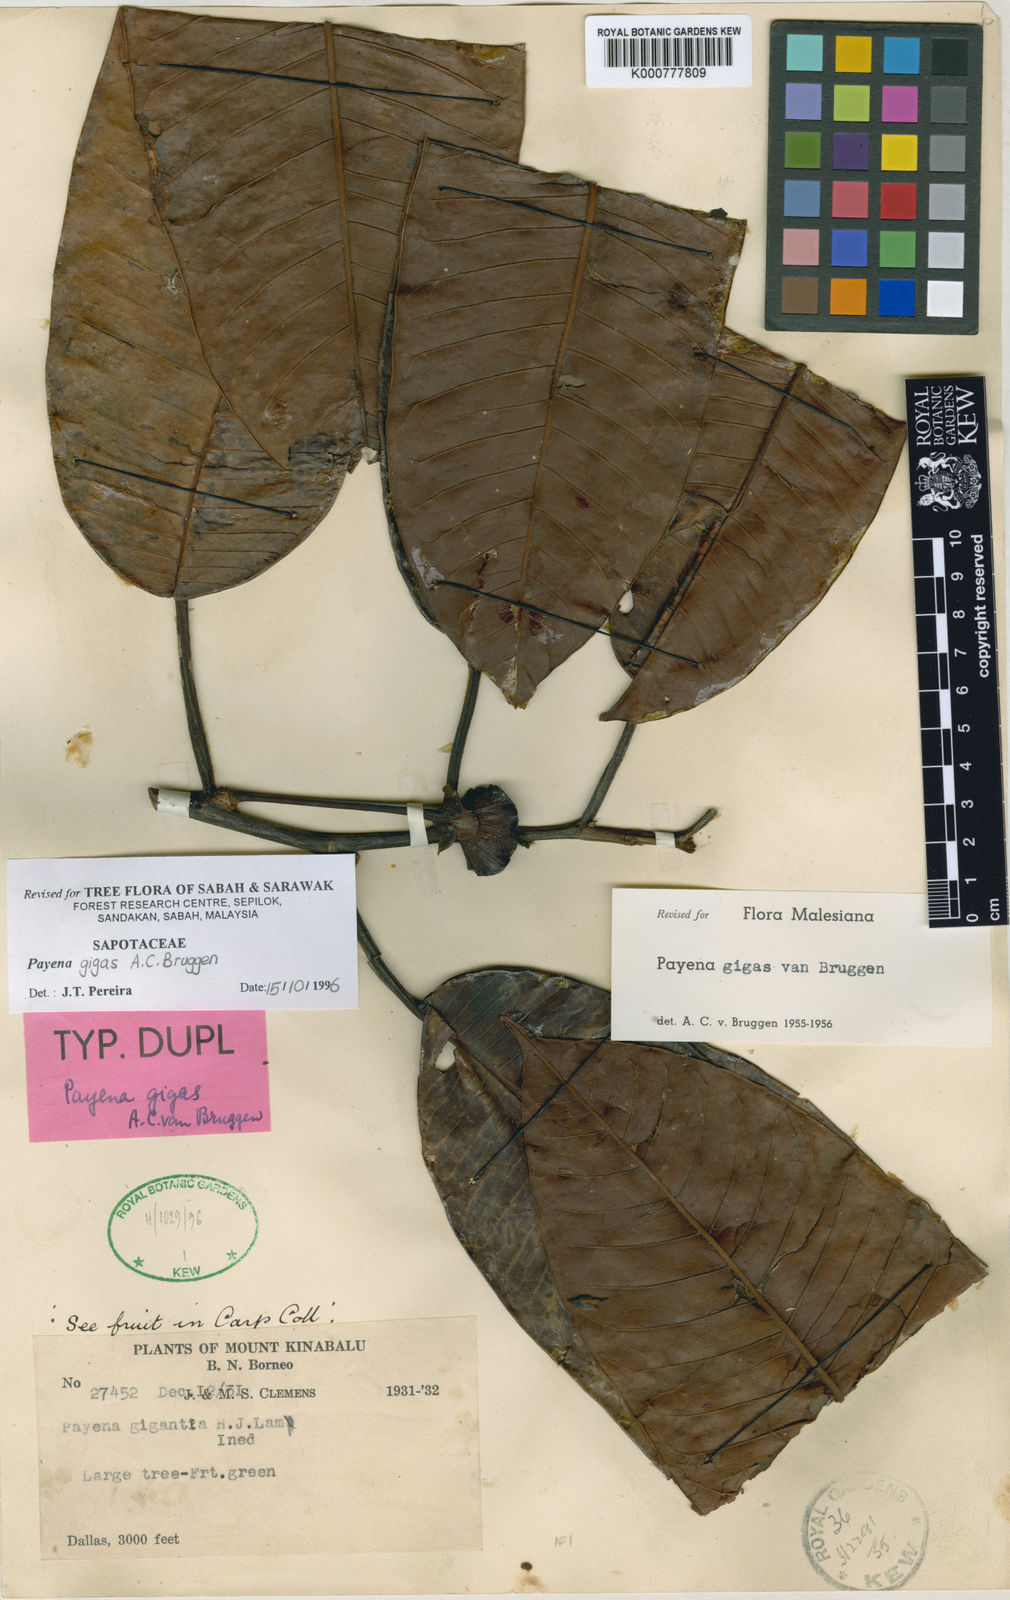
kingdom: Plantae
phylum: Tracheophyta
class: Magnoliopsida
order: Ericales
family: Sapotaceae
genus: Payena
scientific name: Payena gigas
